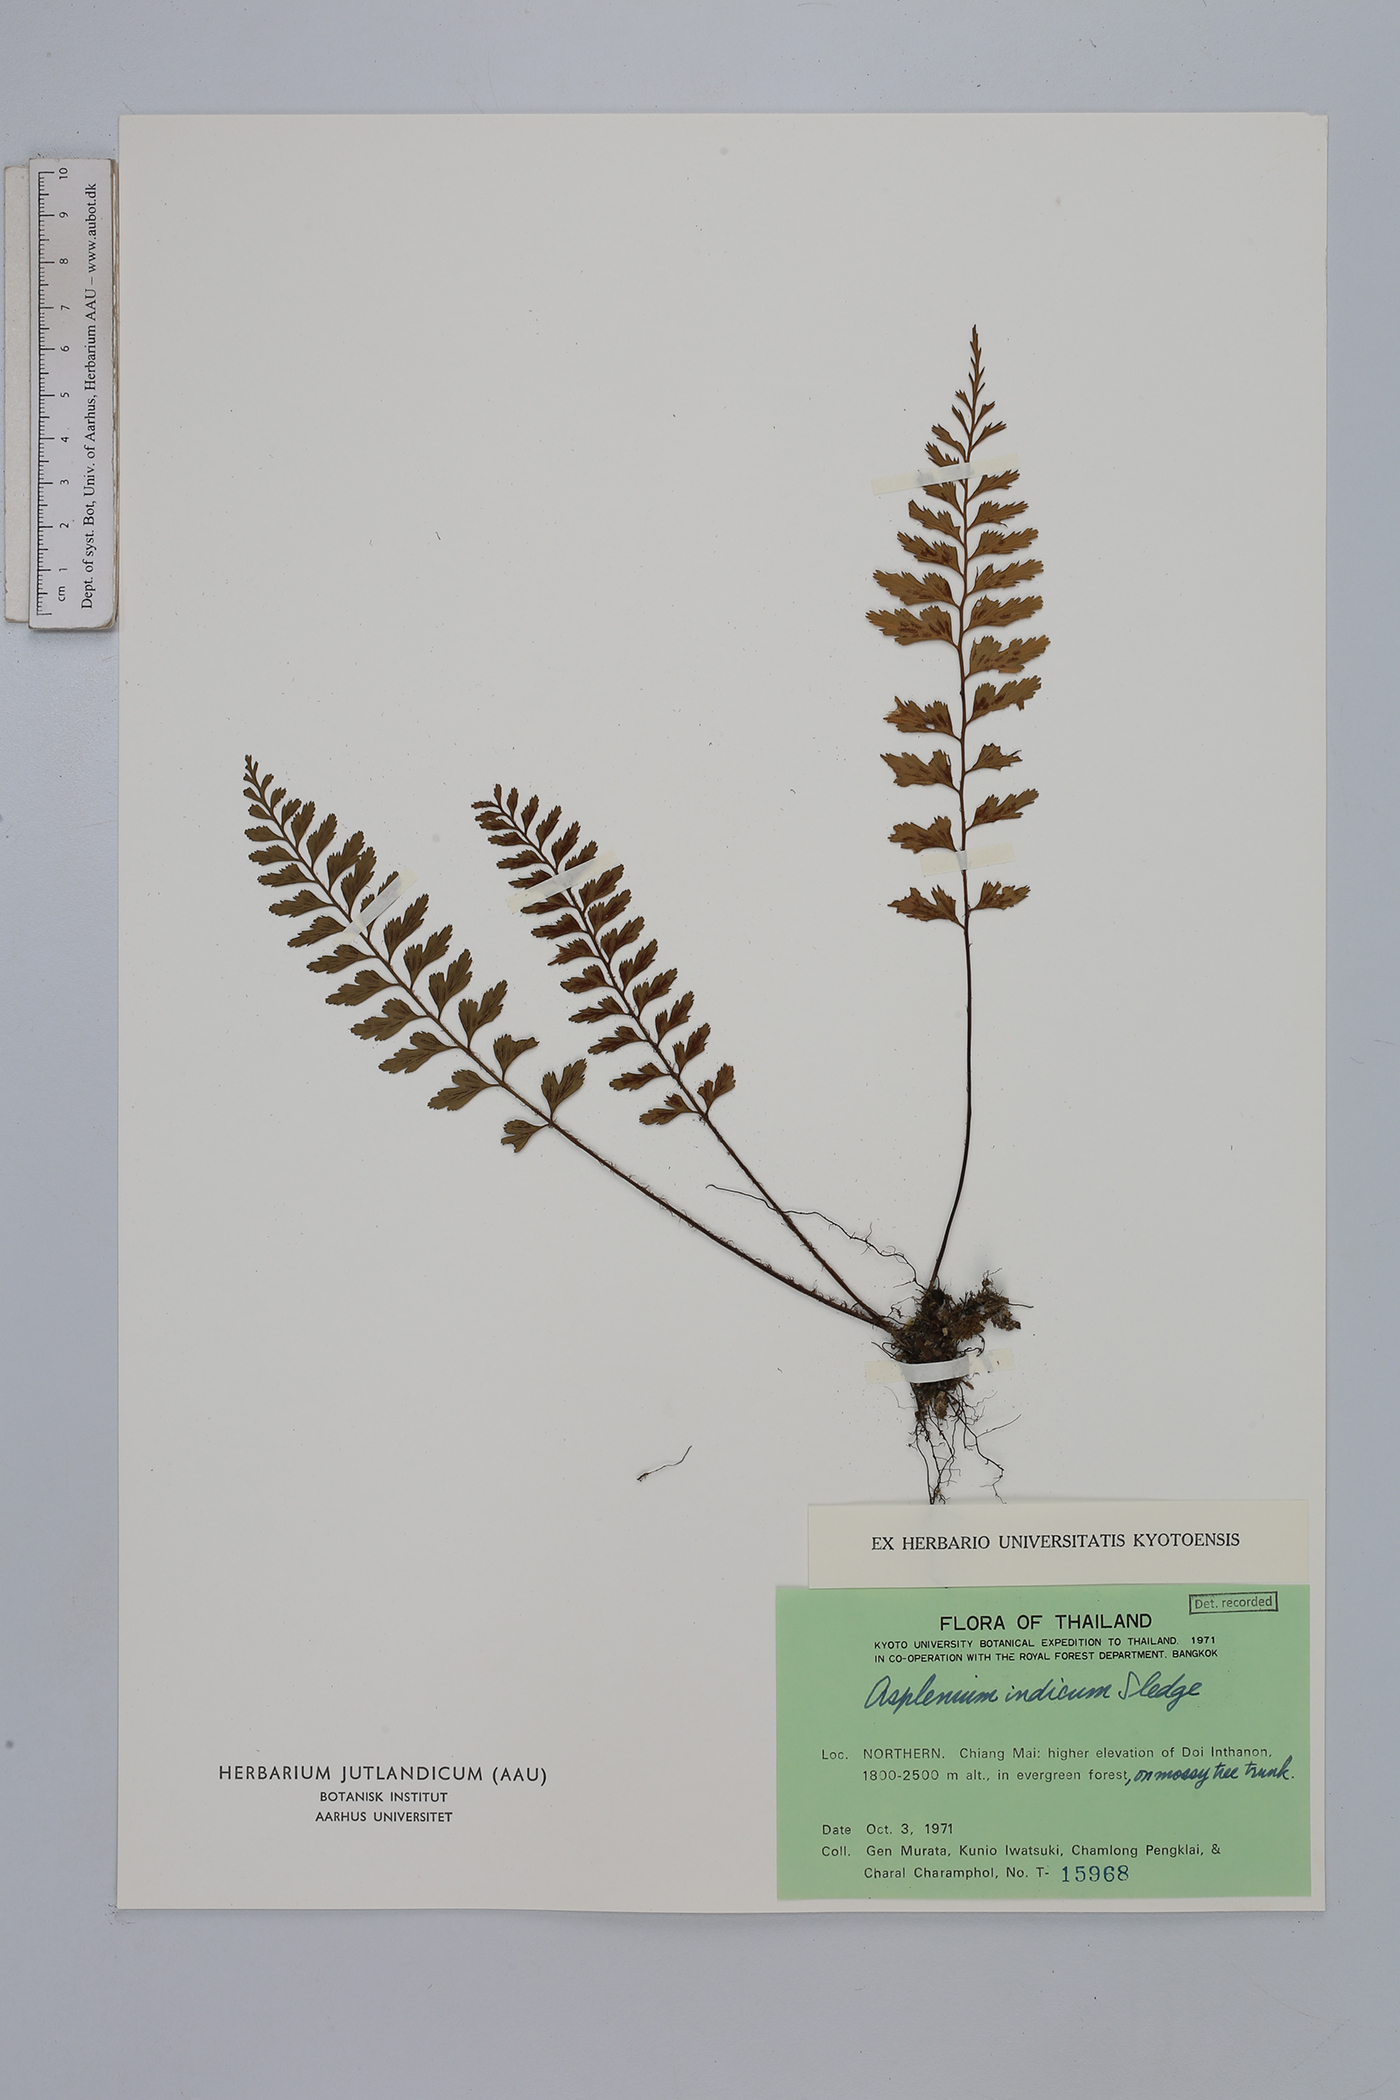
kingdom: Plantae
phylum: Tracheophyta
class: Polypodiopsida
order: Polypodiales
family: Aspleniaceae
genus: Asplenium
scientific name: Asplenium yoshinagae
